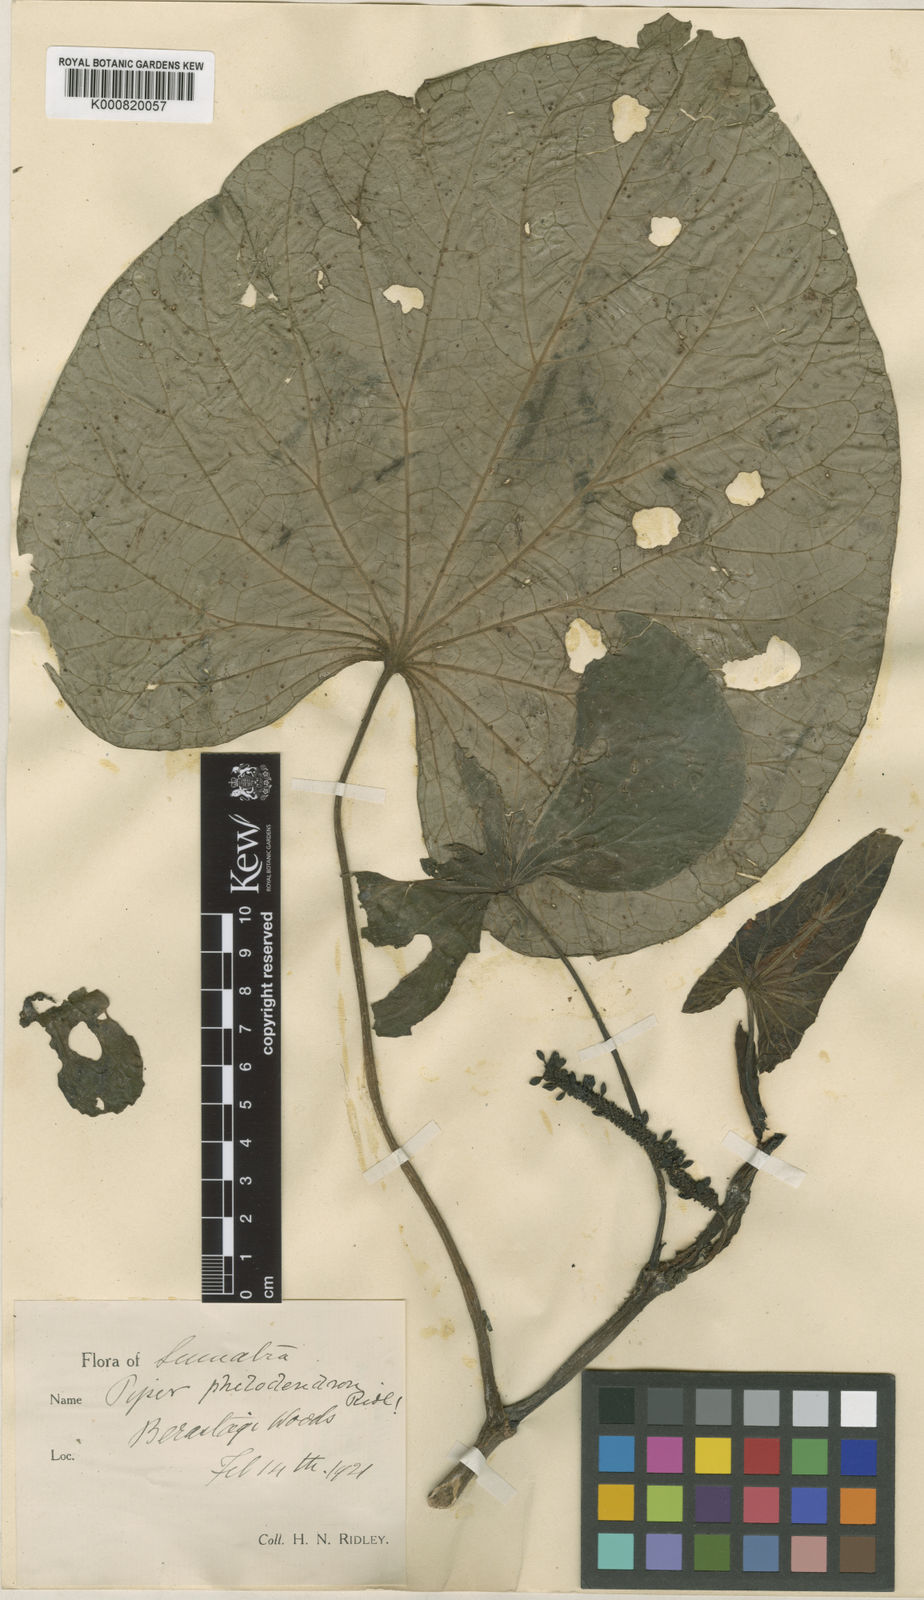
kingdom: Plantae
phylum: Tracheophyta
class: Magnoliopsida
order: Piperales
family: Piperaceae
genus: Piper
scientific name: Piper philodendon
